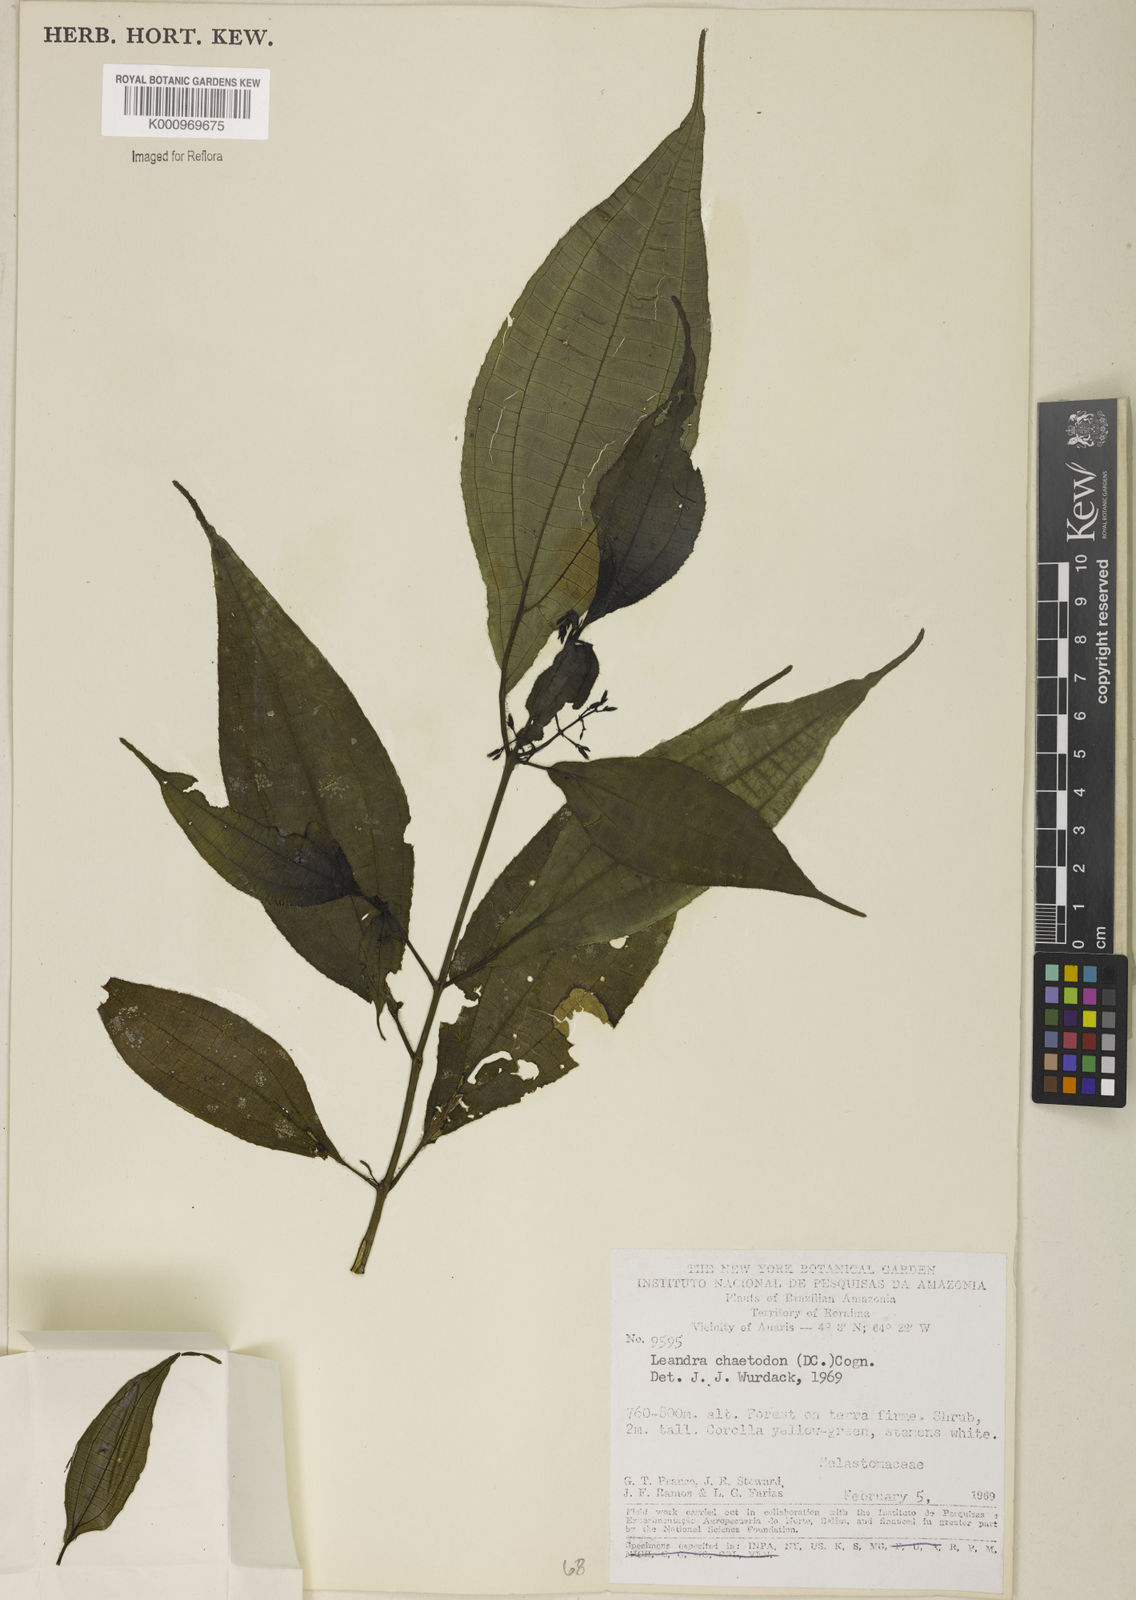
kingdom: Plantae
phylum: Tracheophyta
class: Magnoliopsida
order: Myrtales
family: Melastomataceae
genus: Miconia
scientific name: Miconia chaetodonta
